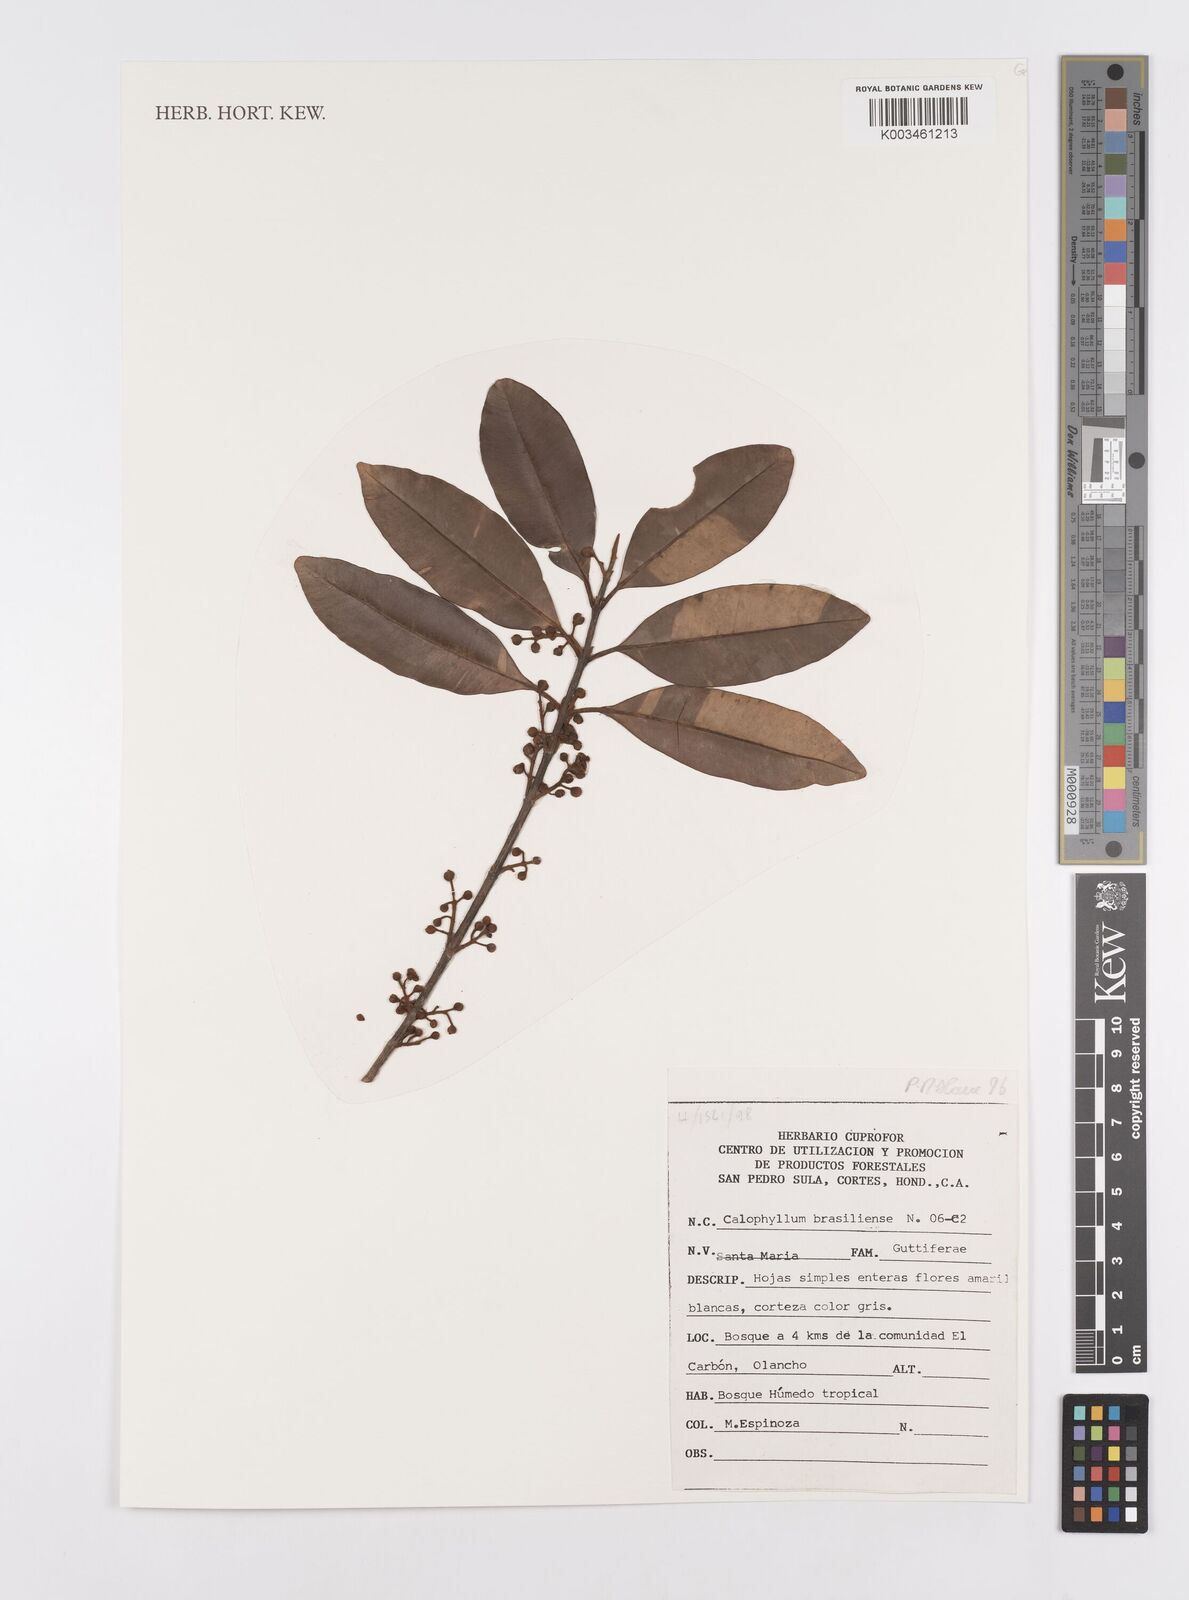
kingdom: Plantae
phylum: Tracheophyta
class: Magnoliopsida
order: Malpighiales
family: Calophyllaceae
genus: Calophyllum
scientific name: Calophyllum brasiliense
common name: Santa maria
